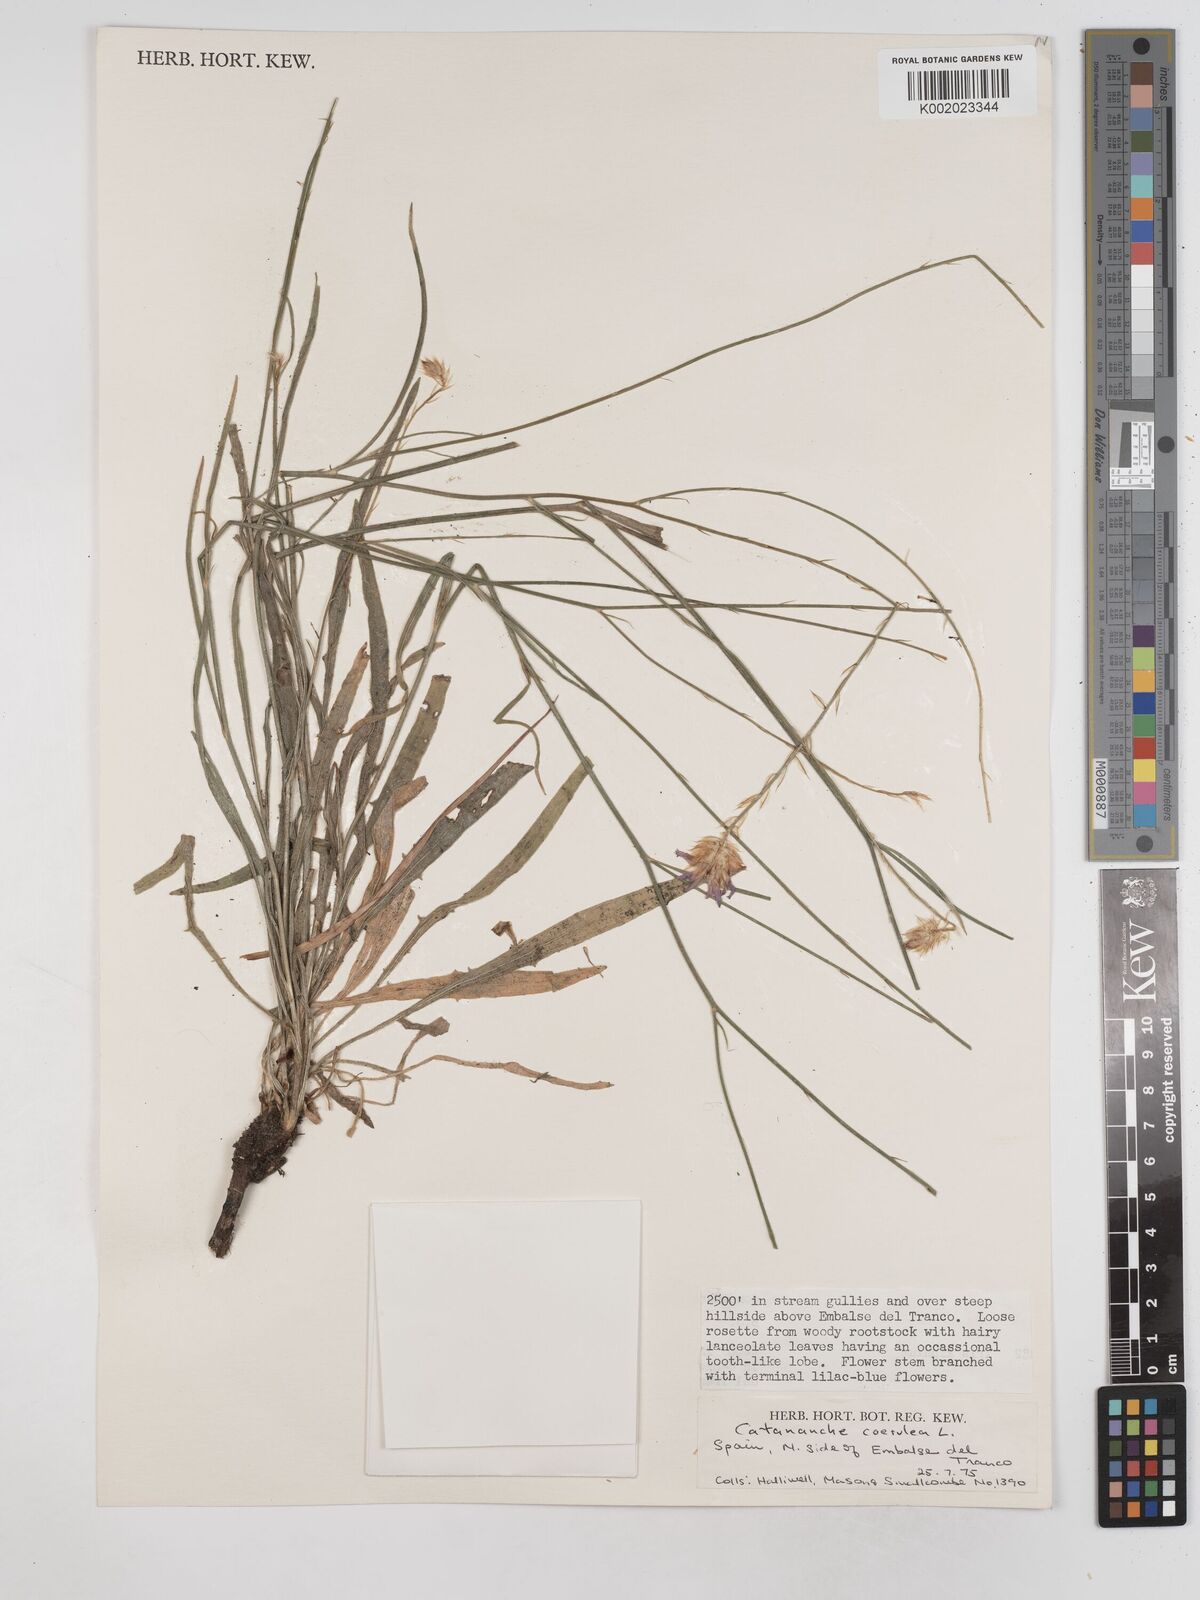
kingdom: Plantae
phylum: Tracheophyta
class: Magnoliopsida
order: Asterales
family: Asteraceae
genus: Catananche
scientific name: Catananche caerulea
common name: Blue cupidone
